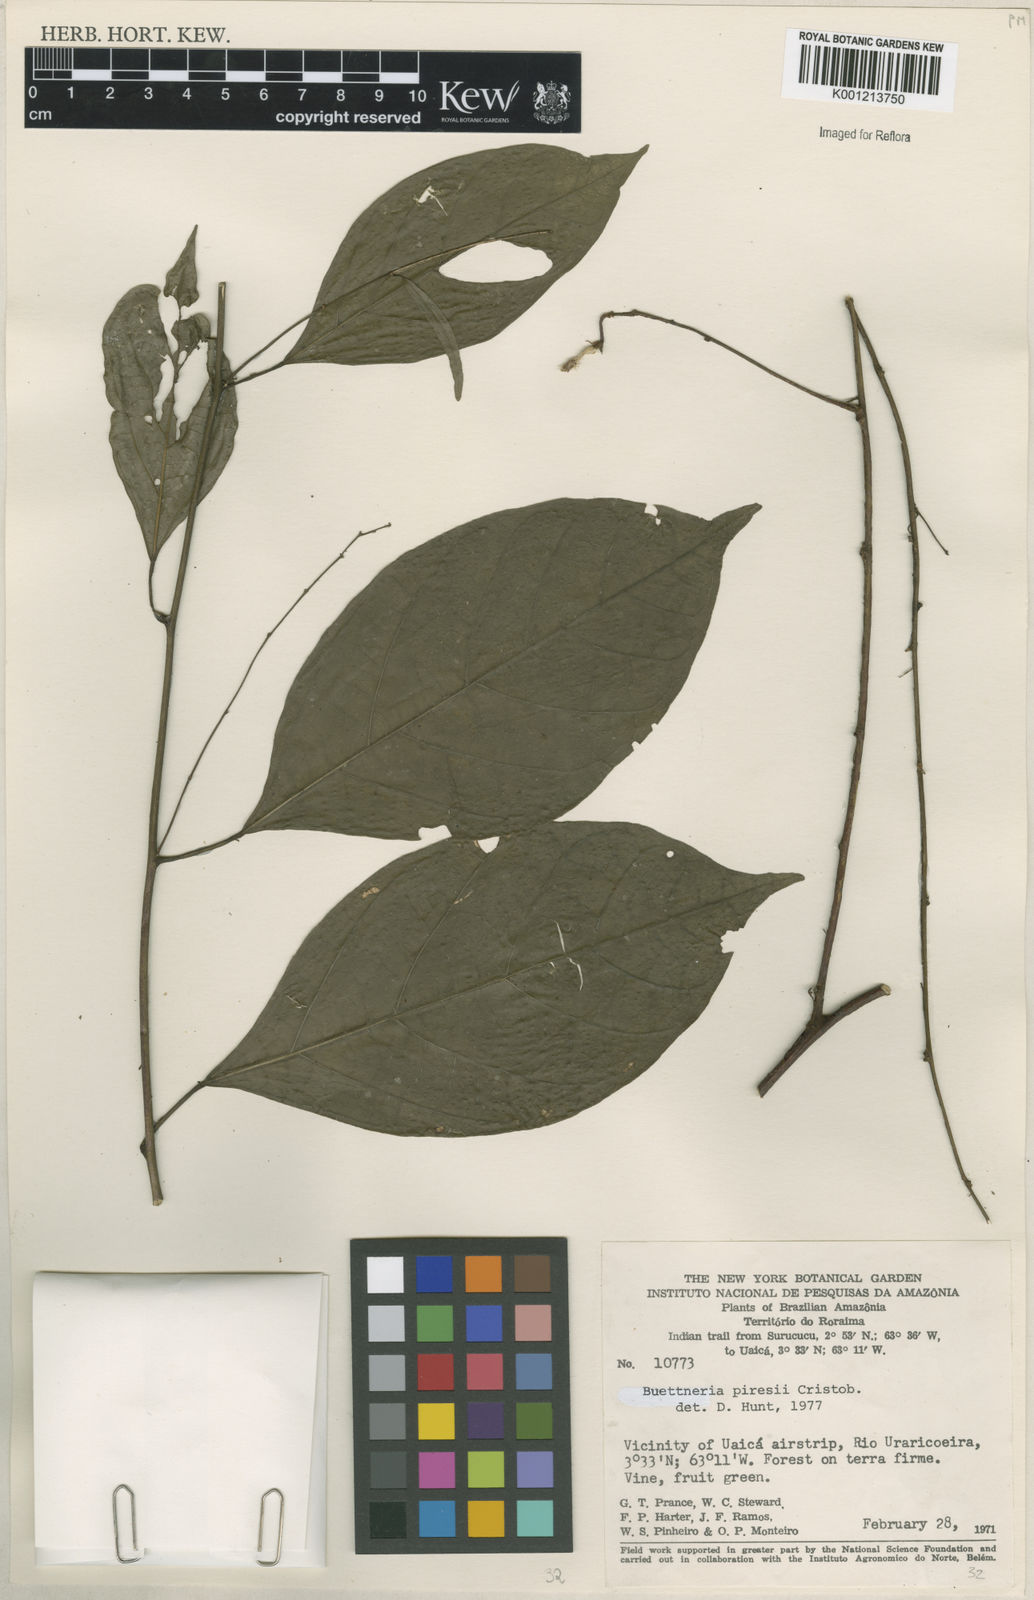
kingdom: Plantae
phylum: Tracheophyta
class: Magnoliopsida
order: Malvales
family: Malvaceae
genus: Byttneria
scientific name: Byttneria
